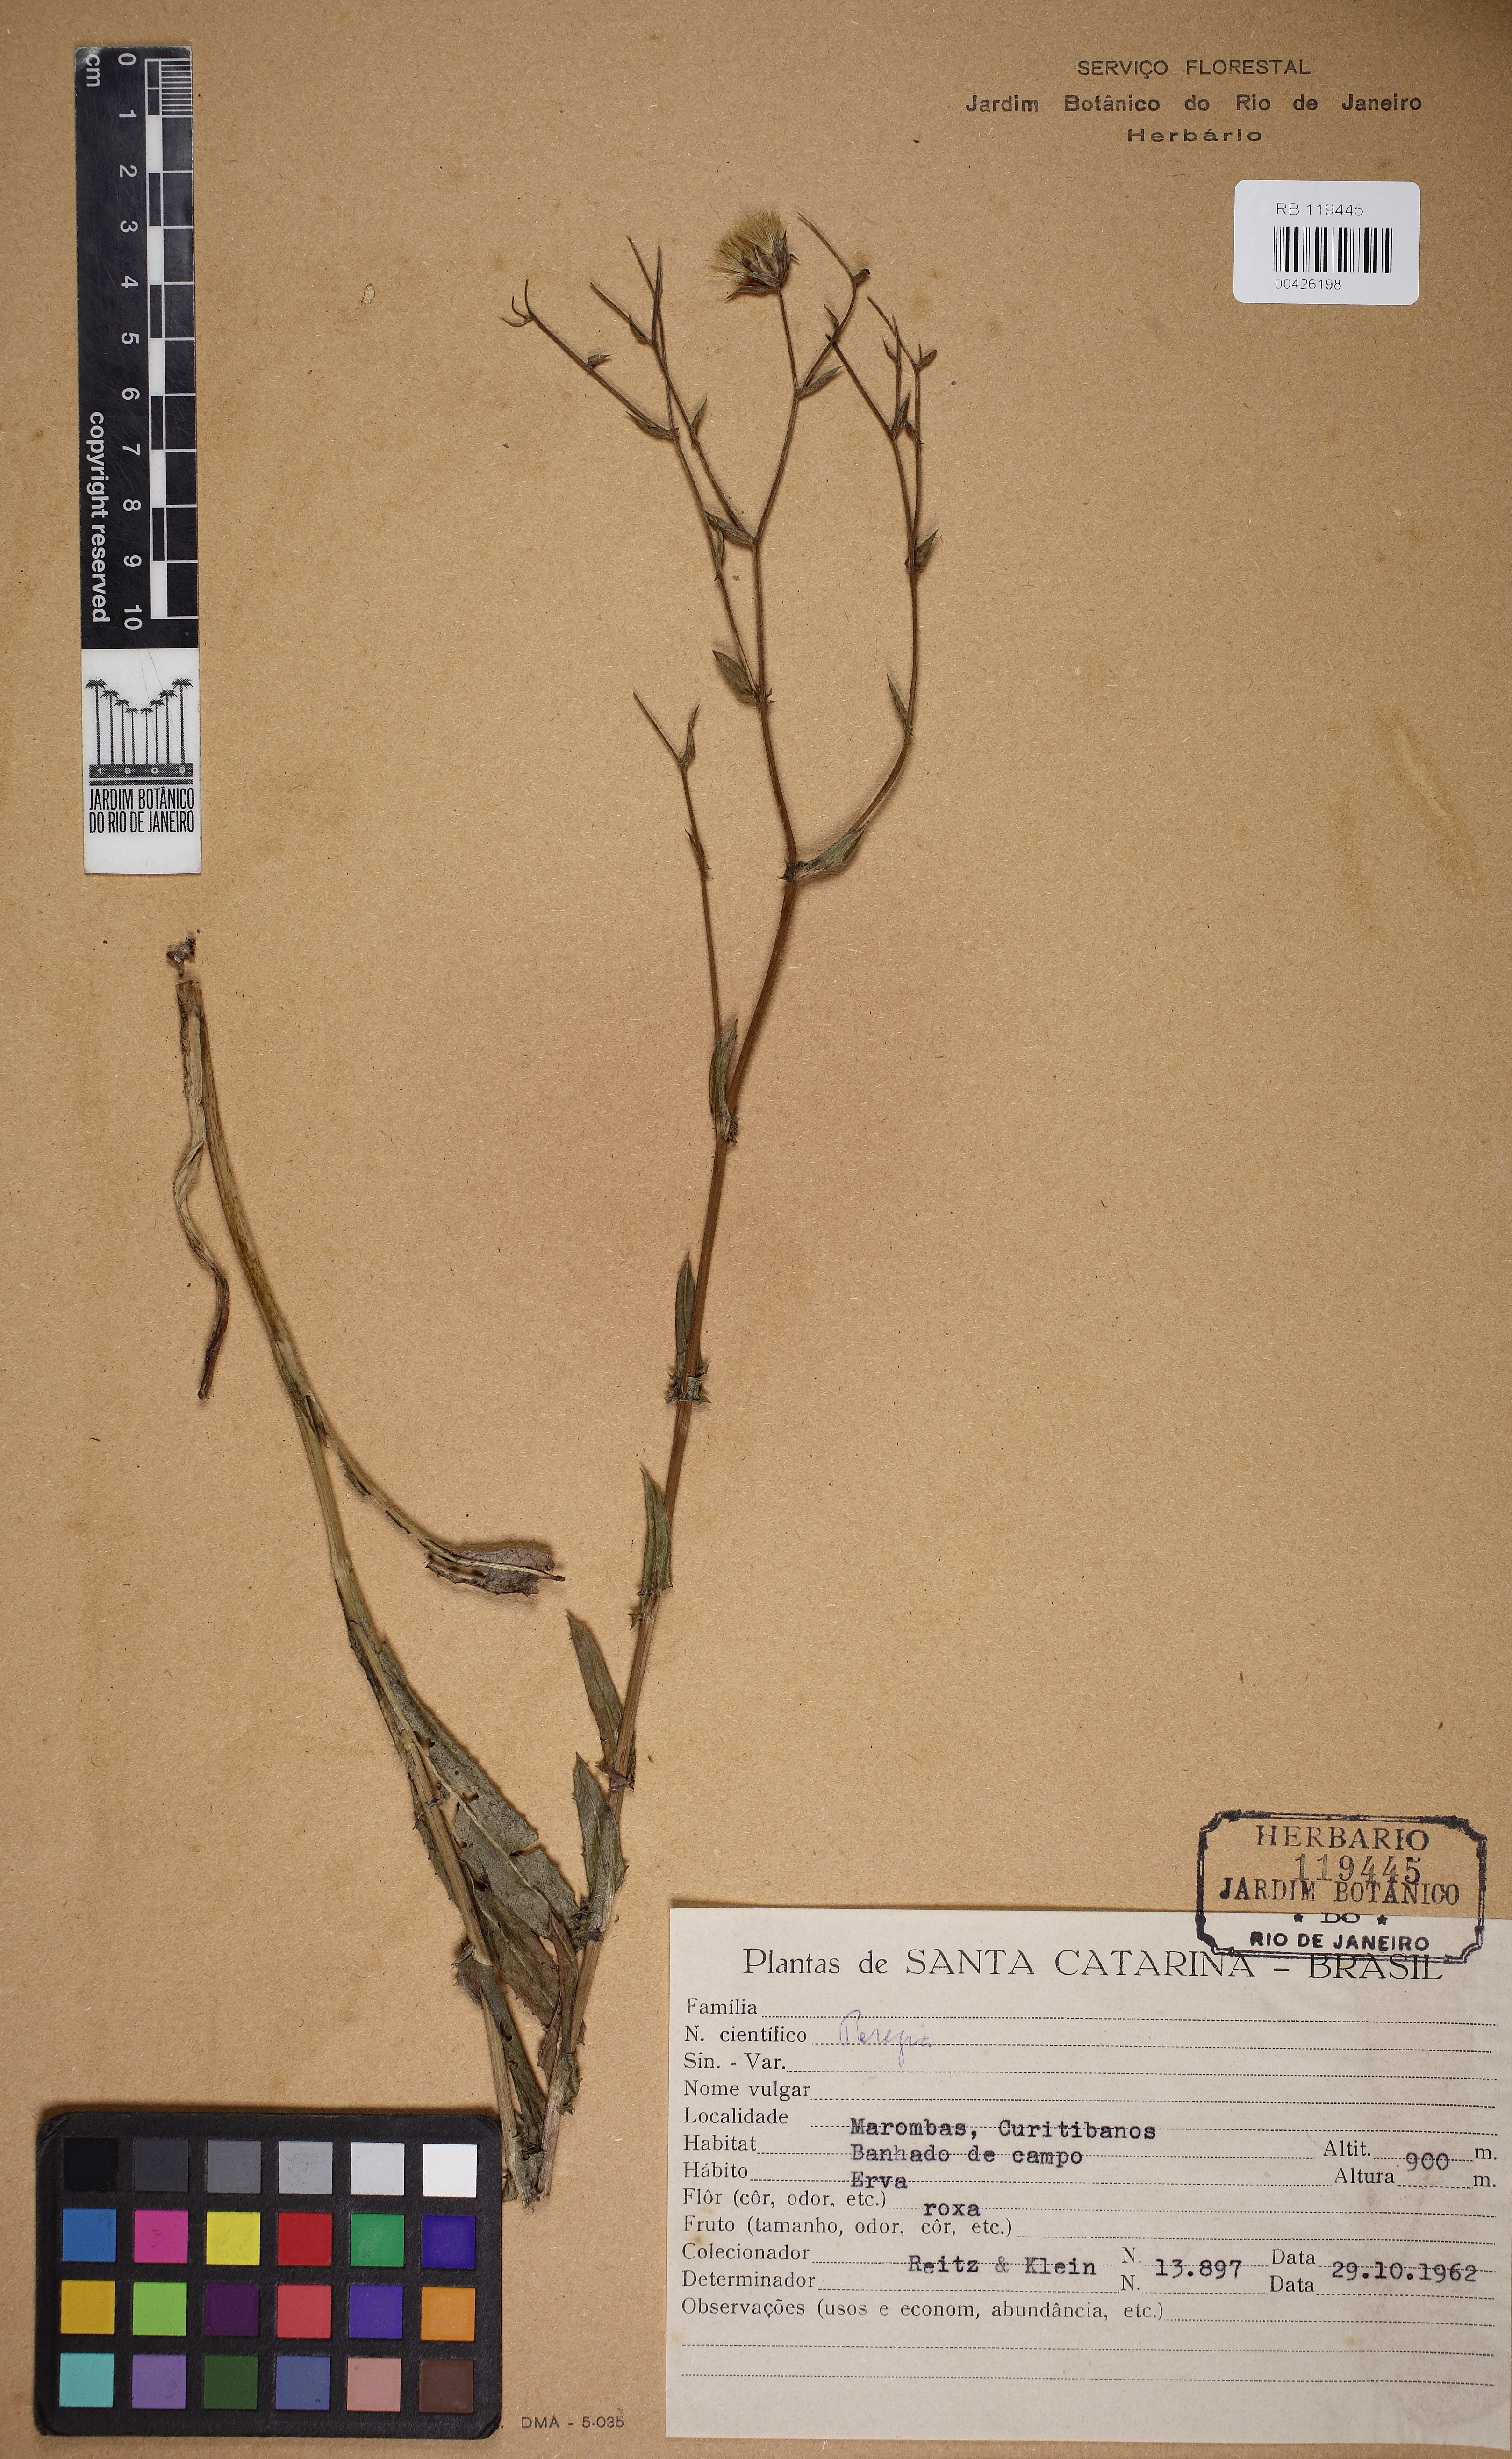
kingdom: Plantae
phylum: Tracheophyta
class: Magnoliopsida
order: Asterales
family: Asteraceae
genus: Perezia
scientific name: Perezia
